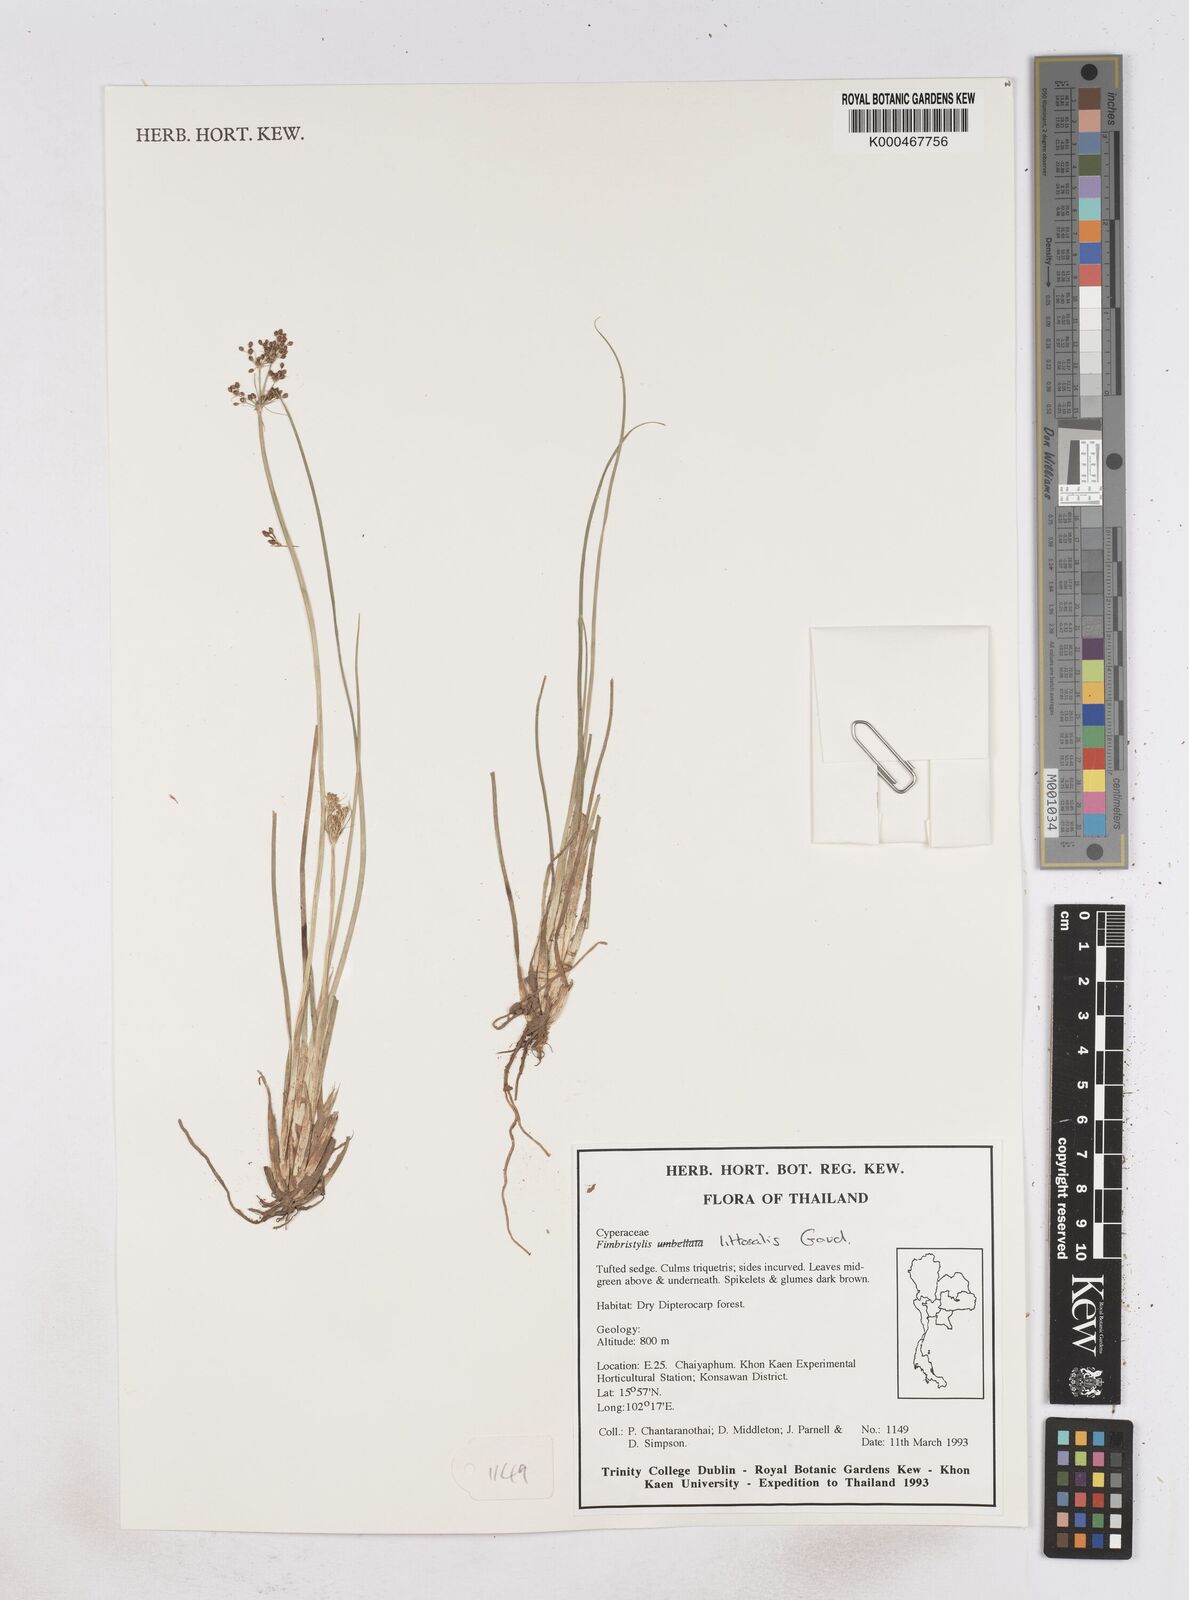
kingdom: Plantae
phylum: Tracheophyta
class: Liliopsida
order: Poales
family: Cyperaceae
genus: Fimbristylis
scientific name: Fimbristylis quinquangularis
